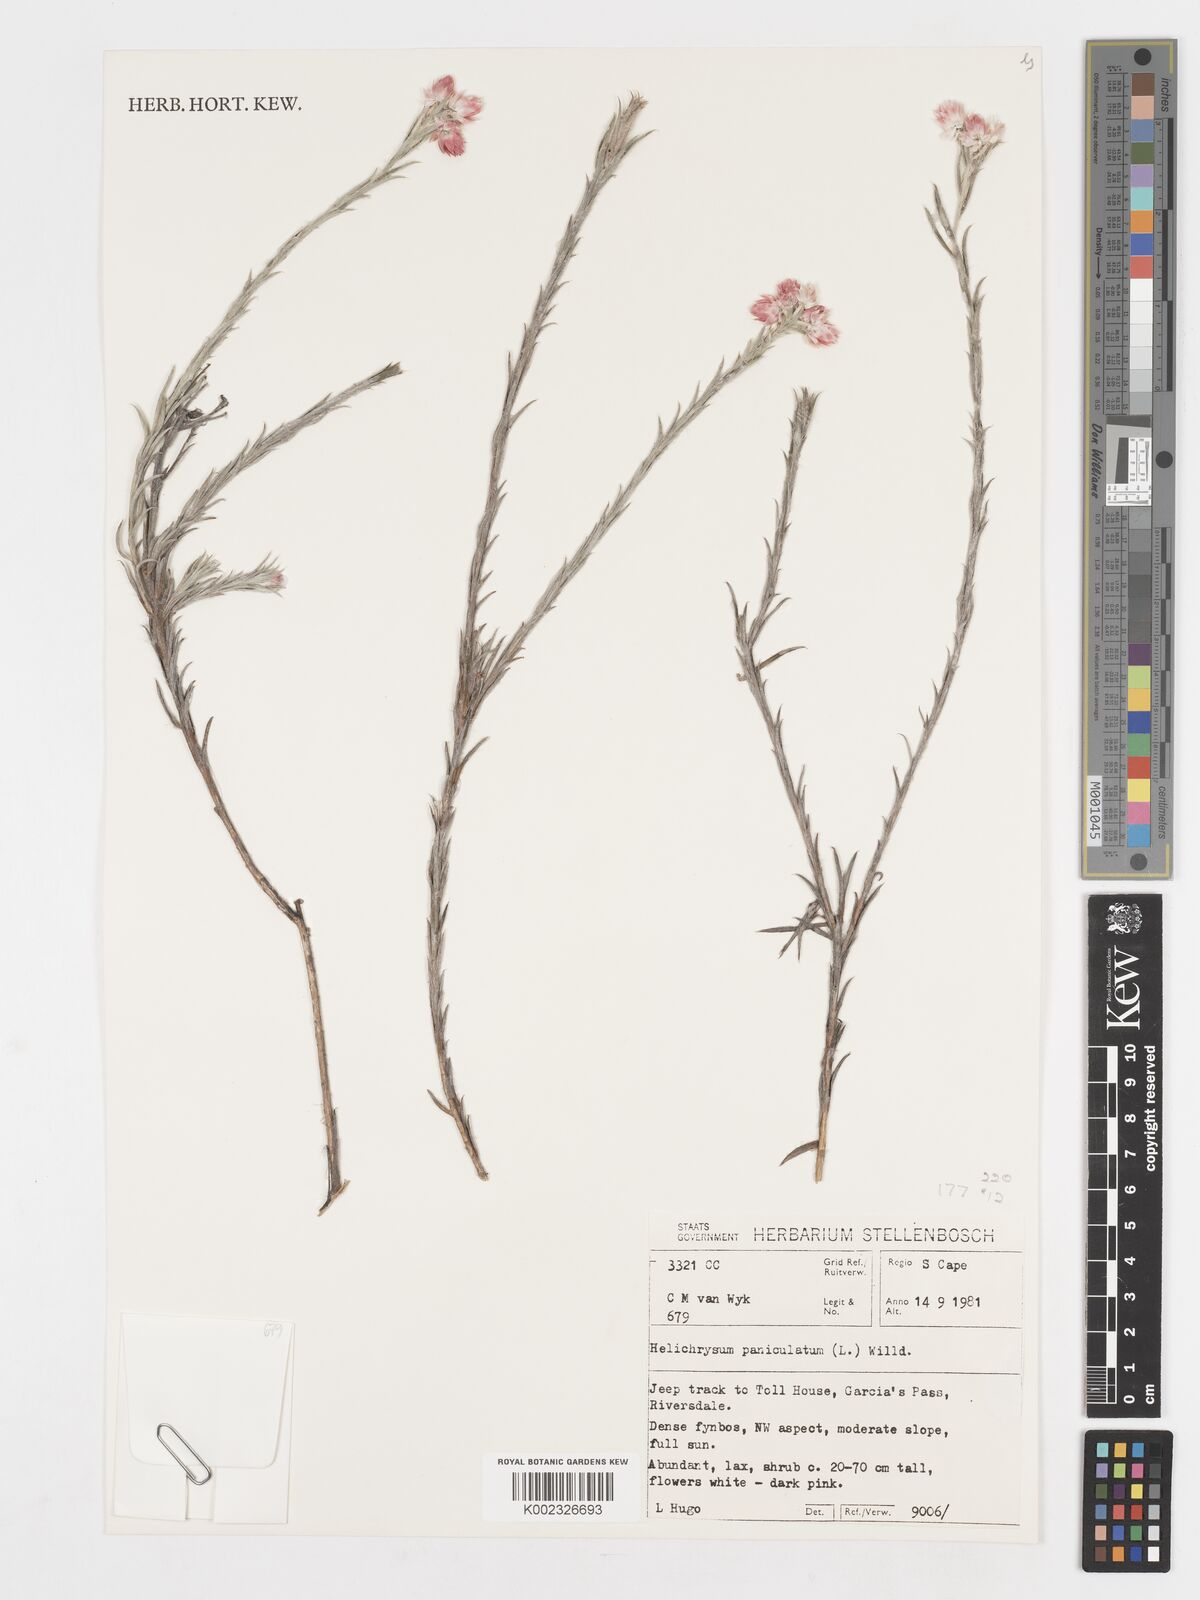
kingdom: Plantae
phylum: Tracheophyta
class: Magnoliopsida
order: Asterales
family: Asteraceae
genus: Achyranthemum
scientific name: Achyranthemum paniculatum
